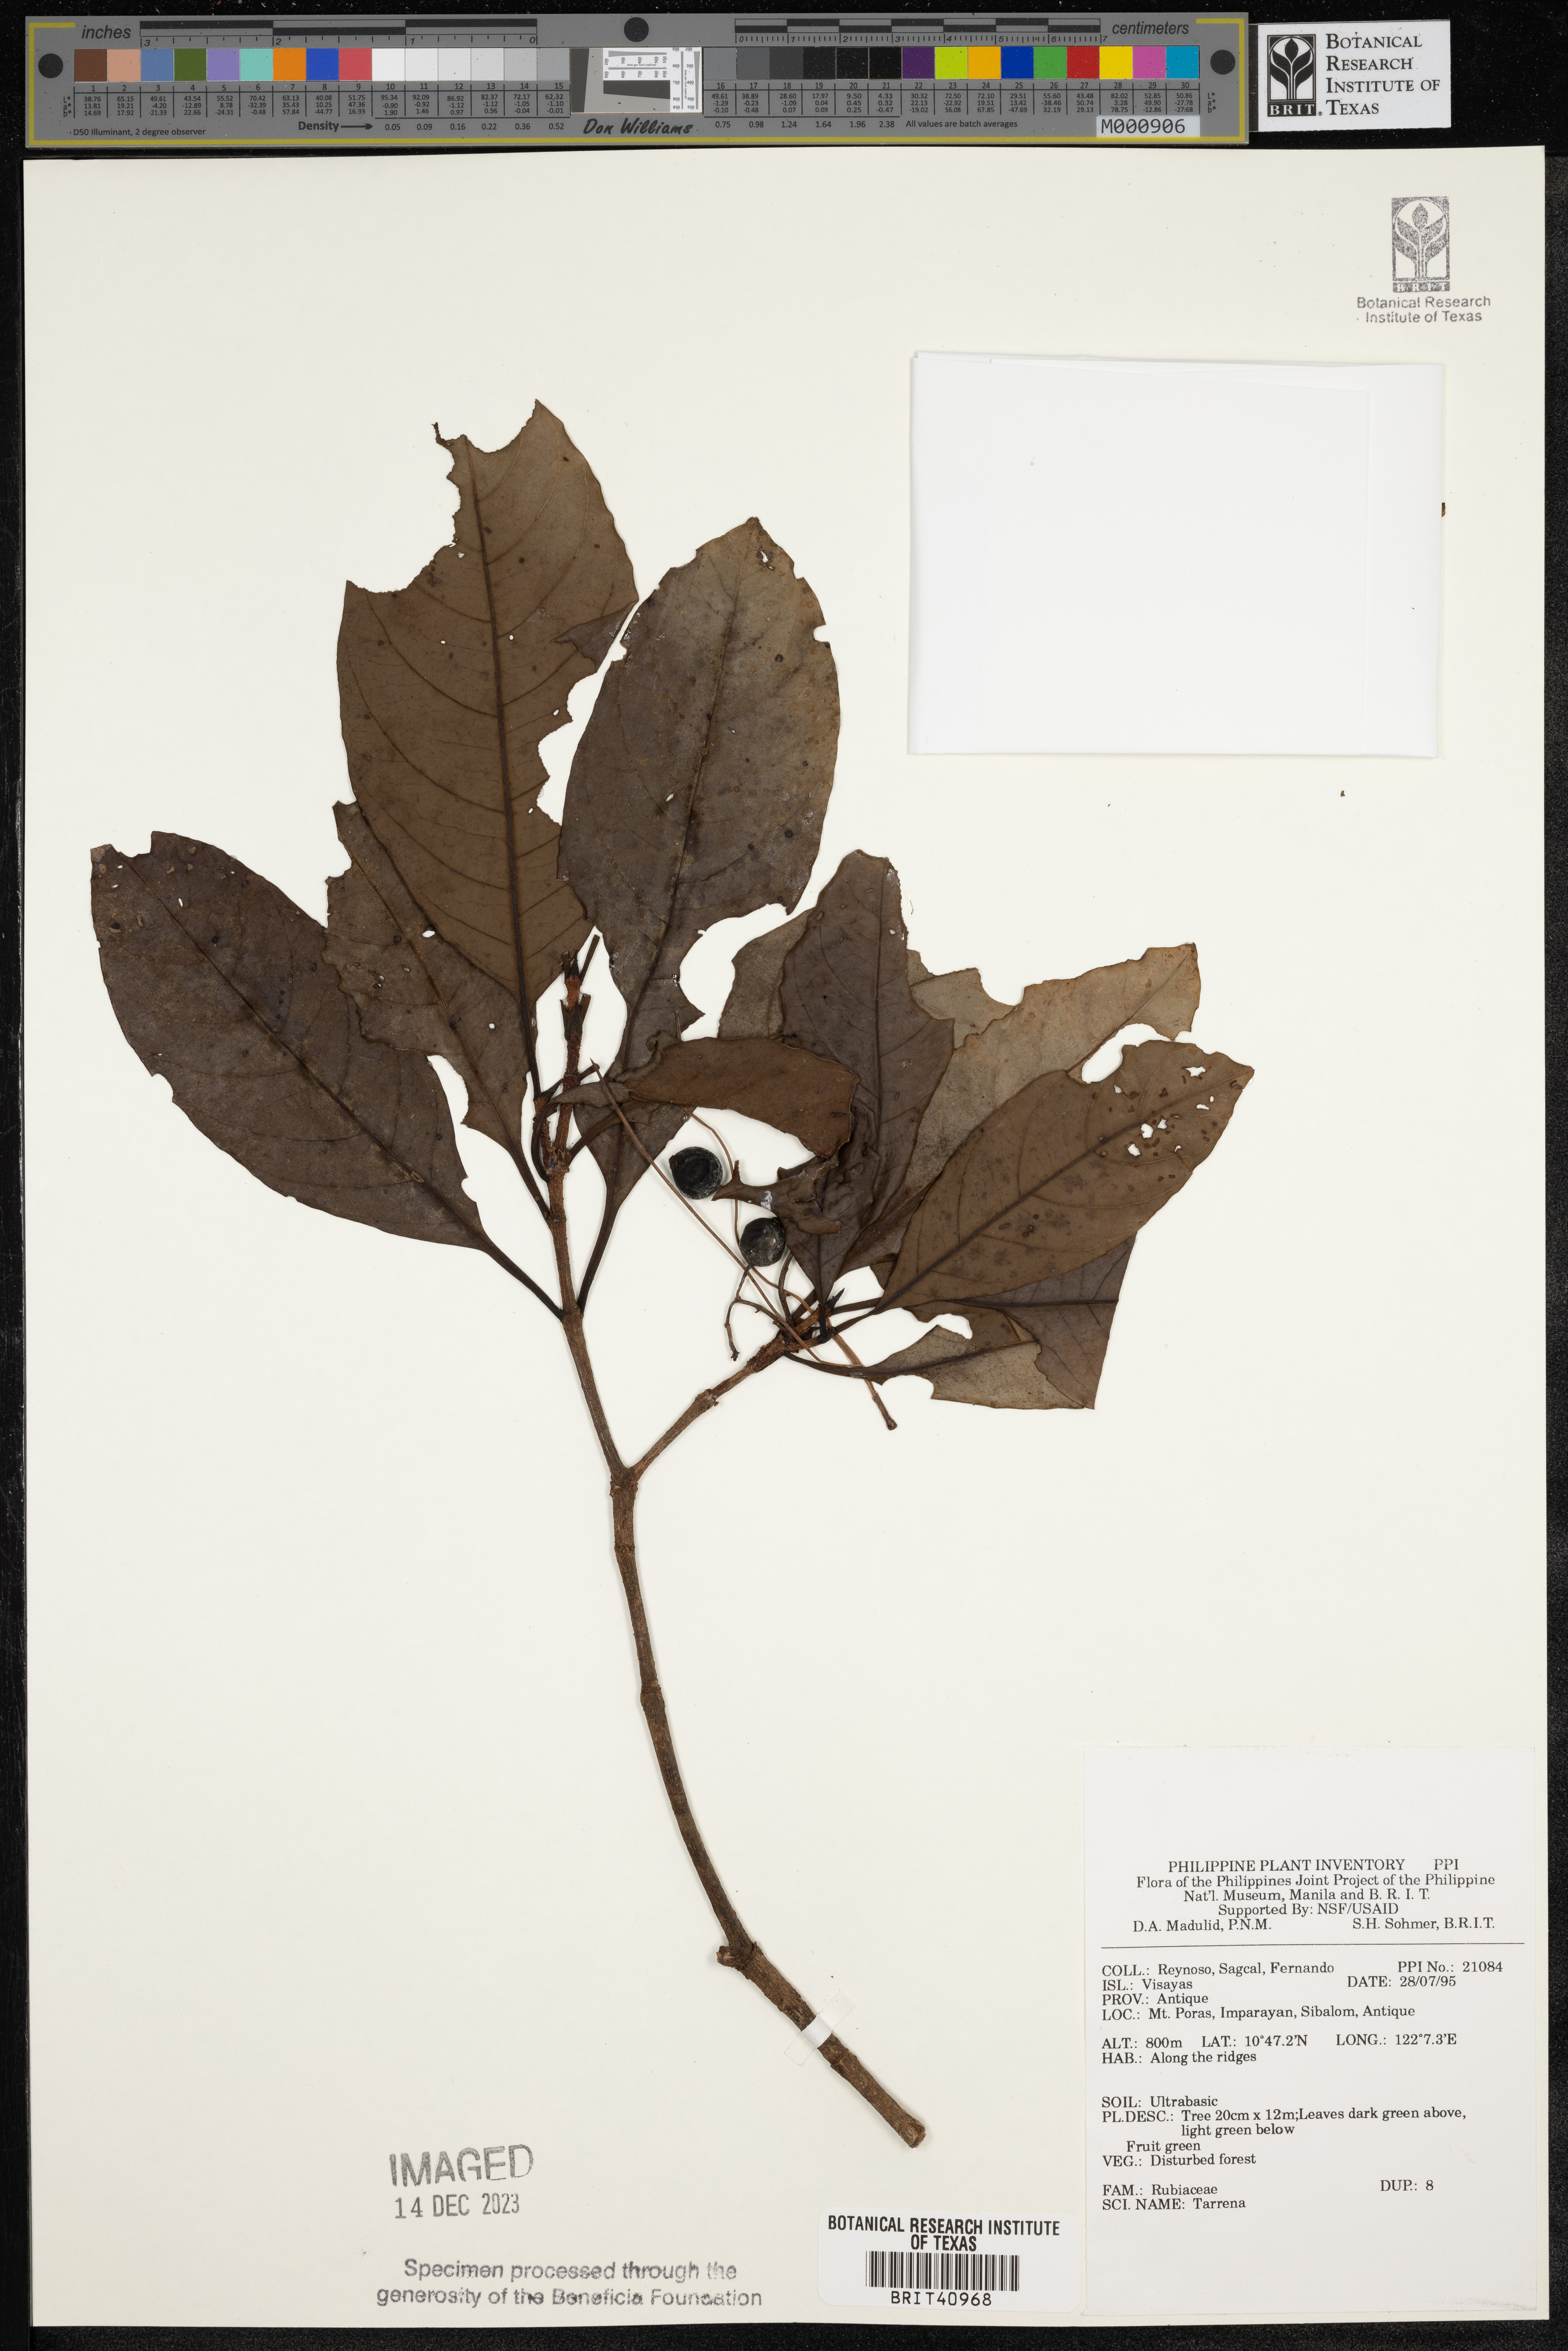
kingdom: Plantae
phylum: Tracheophyta
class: Magnoliopsida
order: Gentianales
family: Rubiaceae
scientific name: Rubiaceae
